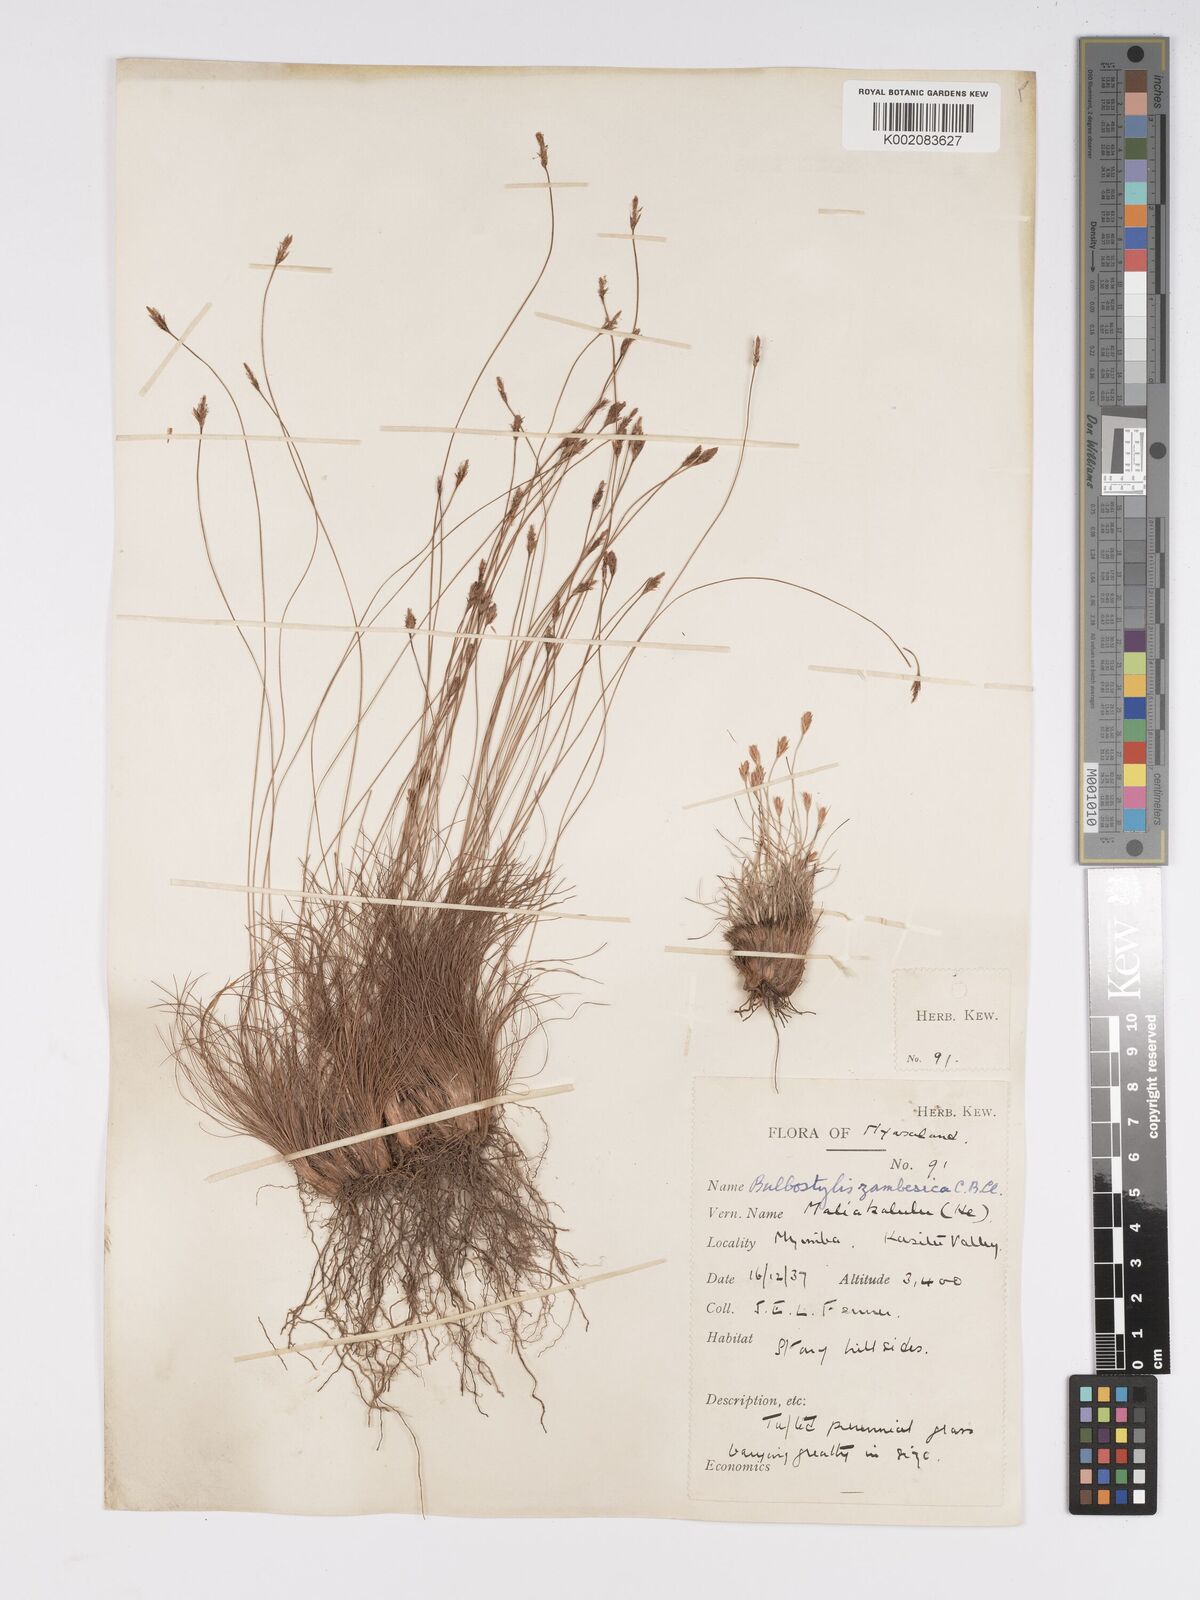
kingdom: Plantae
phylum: Tracheophyta
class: Liliopsida
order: Poales
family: Cyperaceae
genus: Bulbostylis
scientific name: Bulbostylis macra
